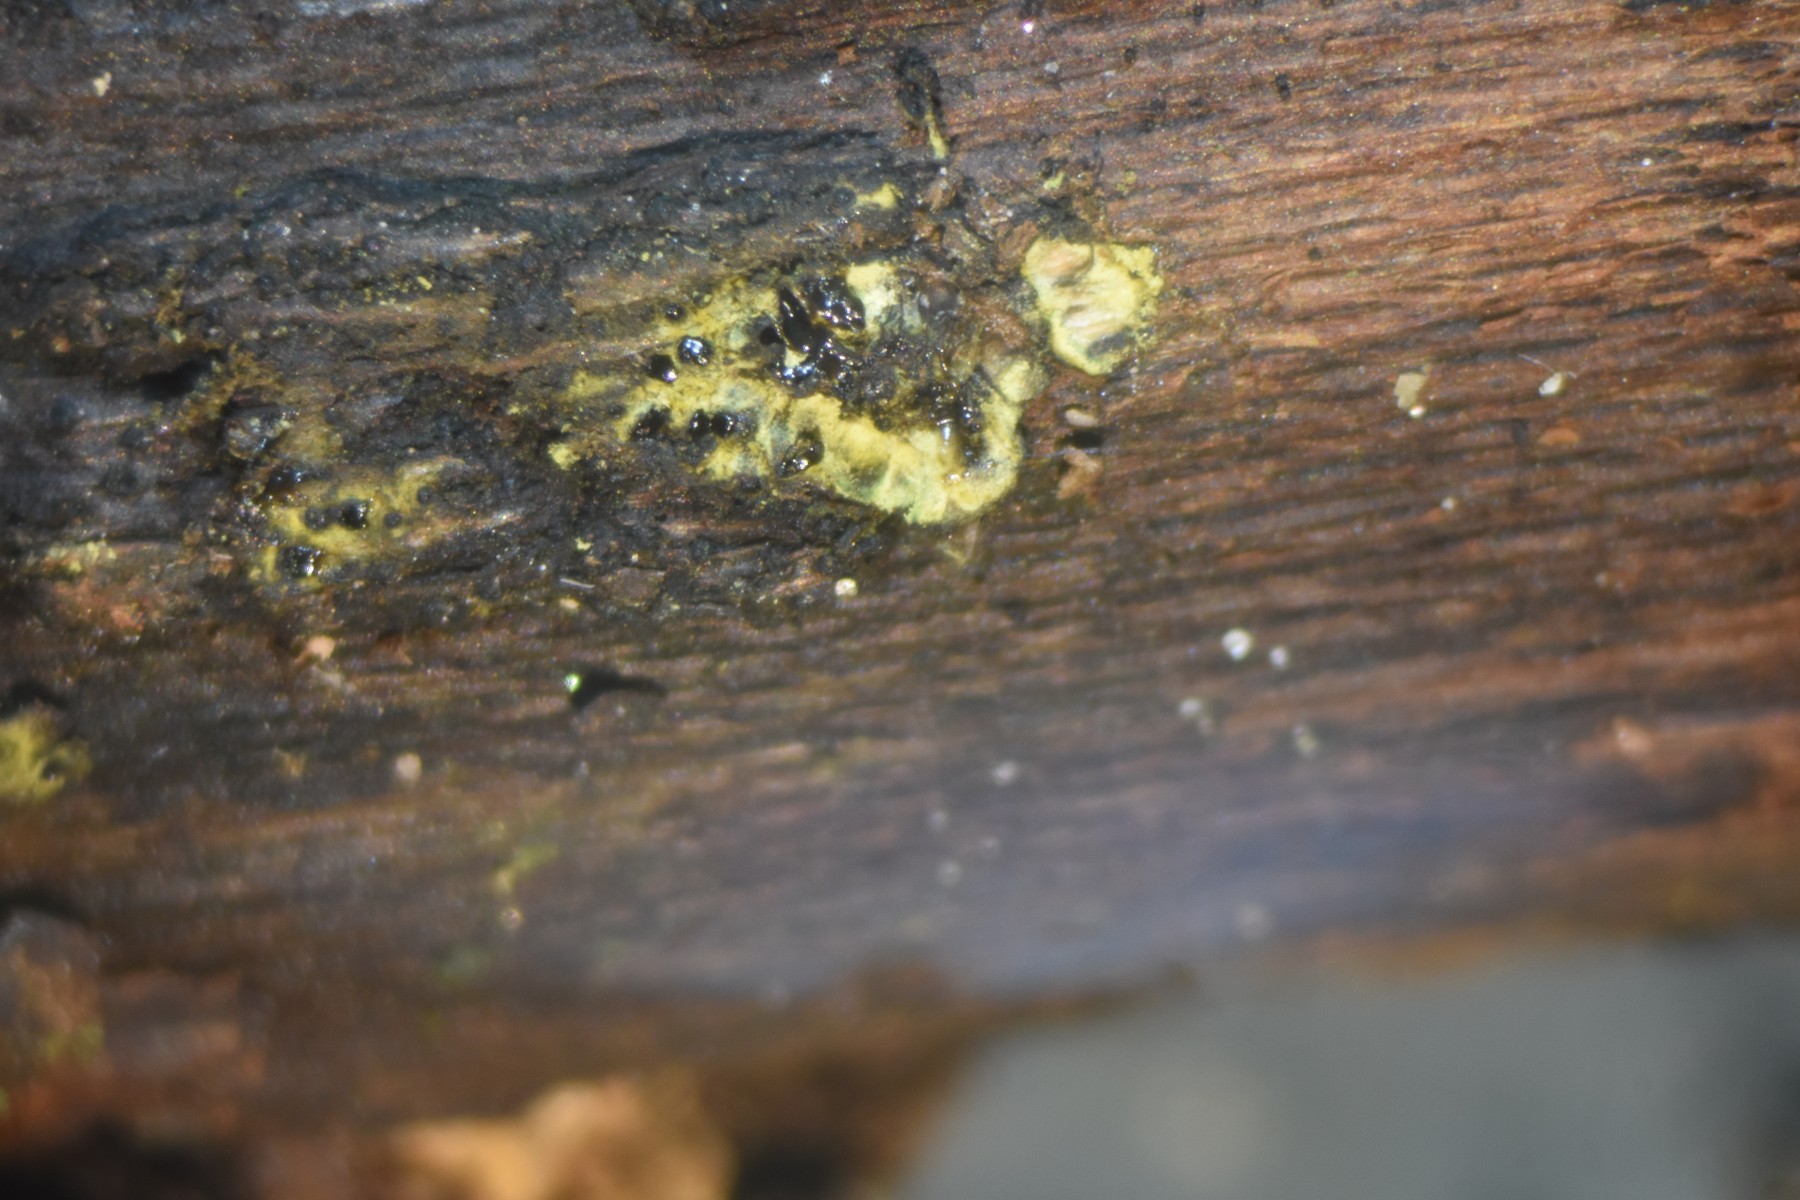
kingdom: Fungi
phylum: Ascomycota
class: Sordariomycetes
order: Xylariales
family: Diatrypaceae
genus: Eutypa
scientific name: Eutypa flavovirens
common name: grønkødet kulskorpe
